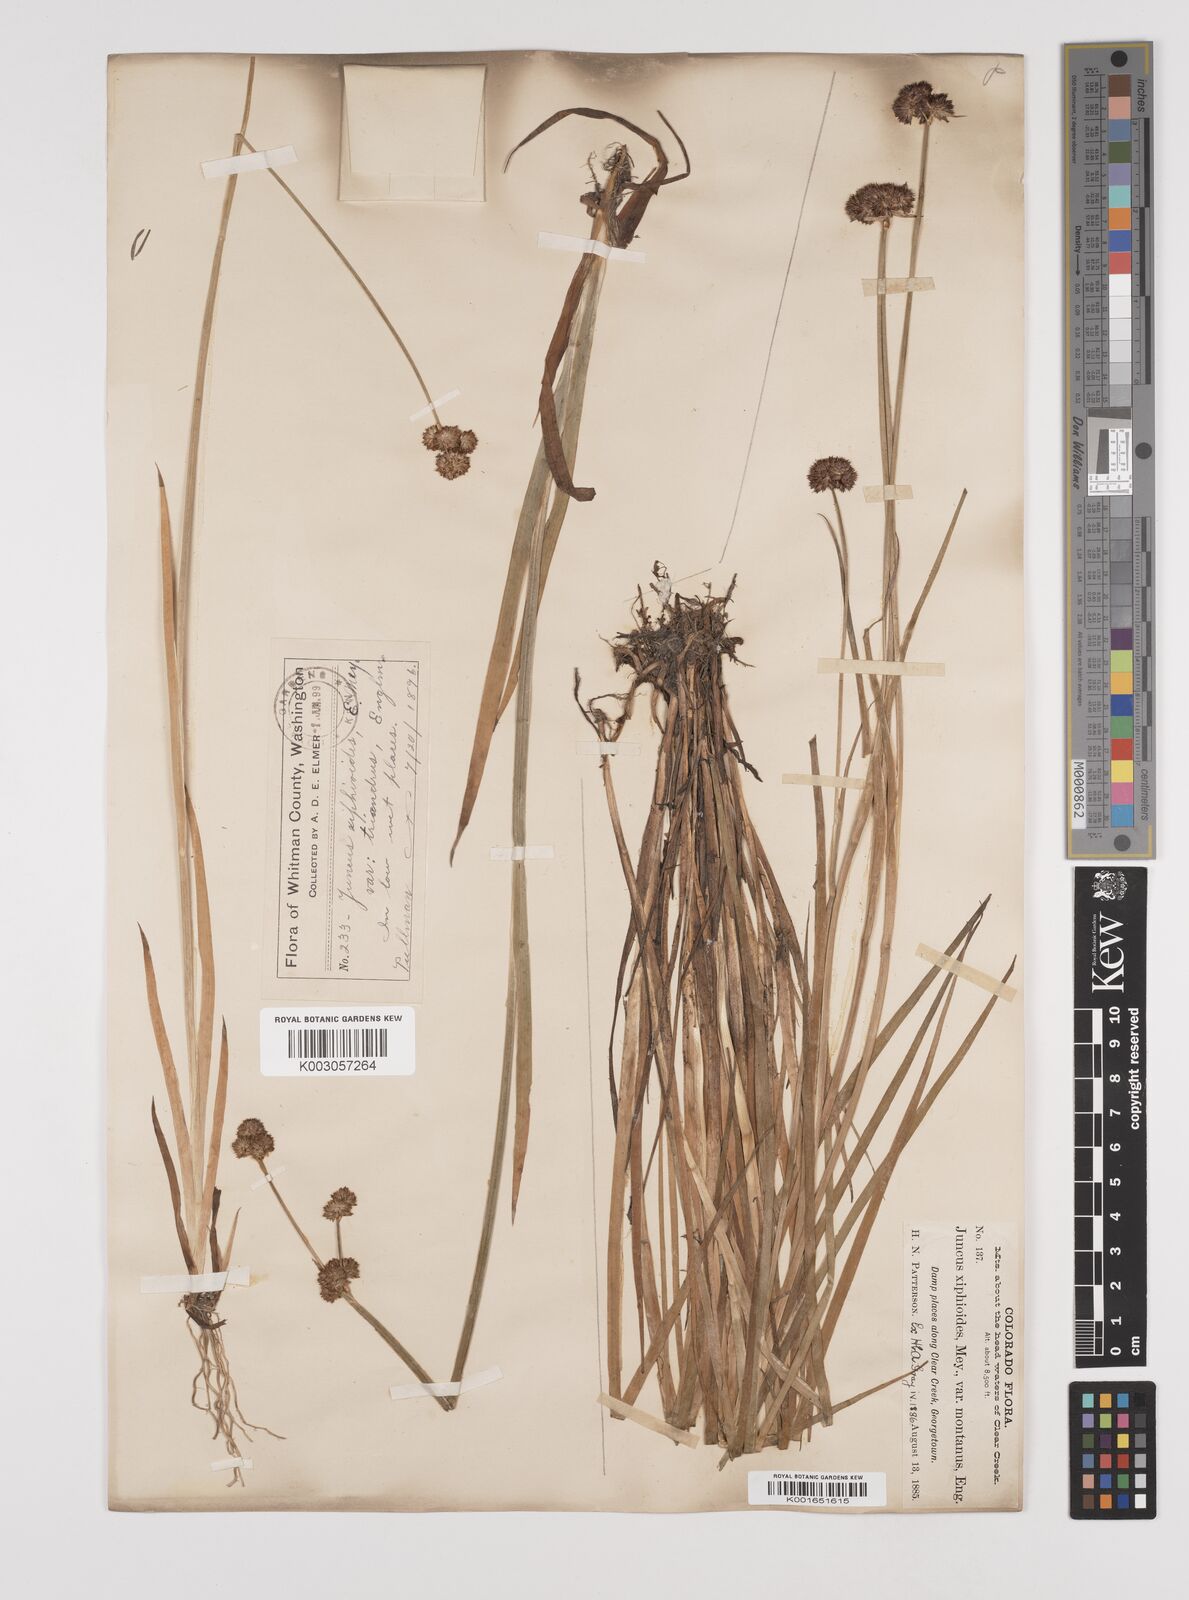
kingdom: Plantae
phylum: Tracheophyta
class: Liliopsida
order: Poales
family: Juncaceae
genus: Juncus
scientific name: Juncus xiphioides
